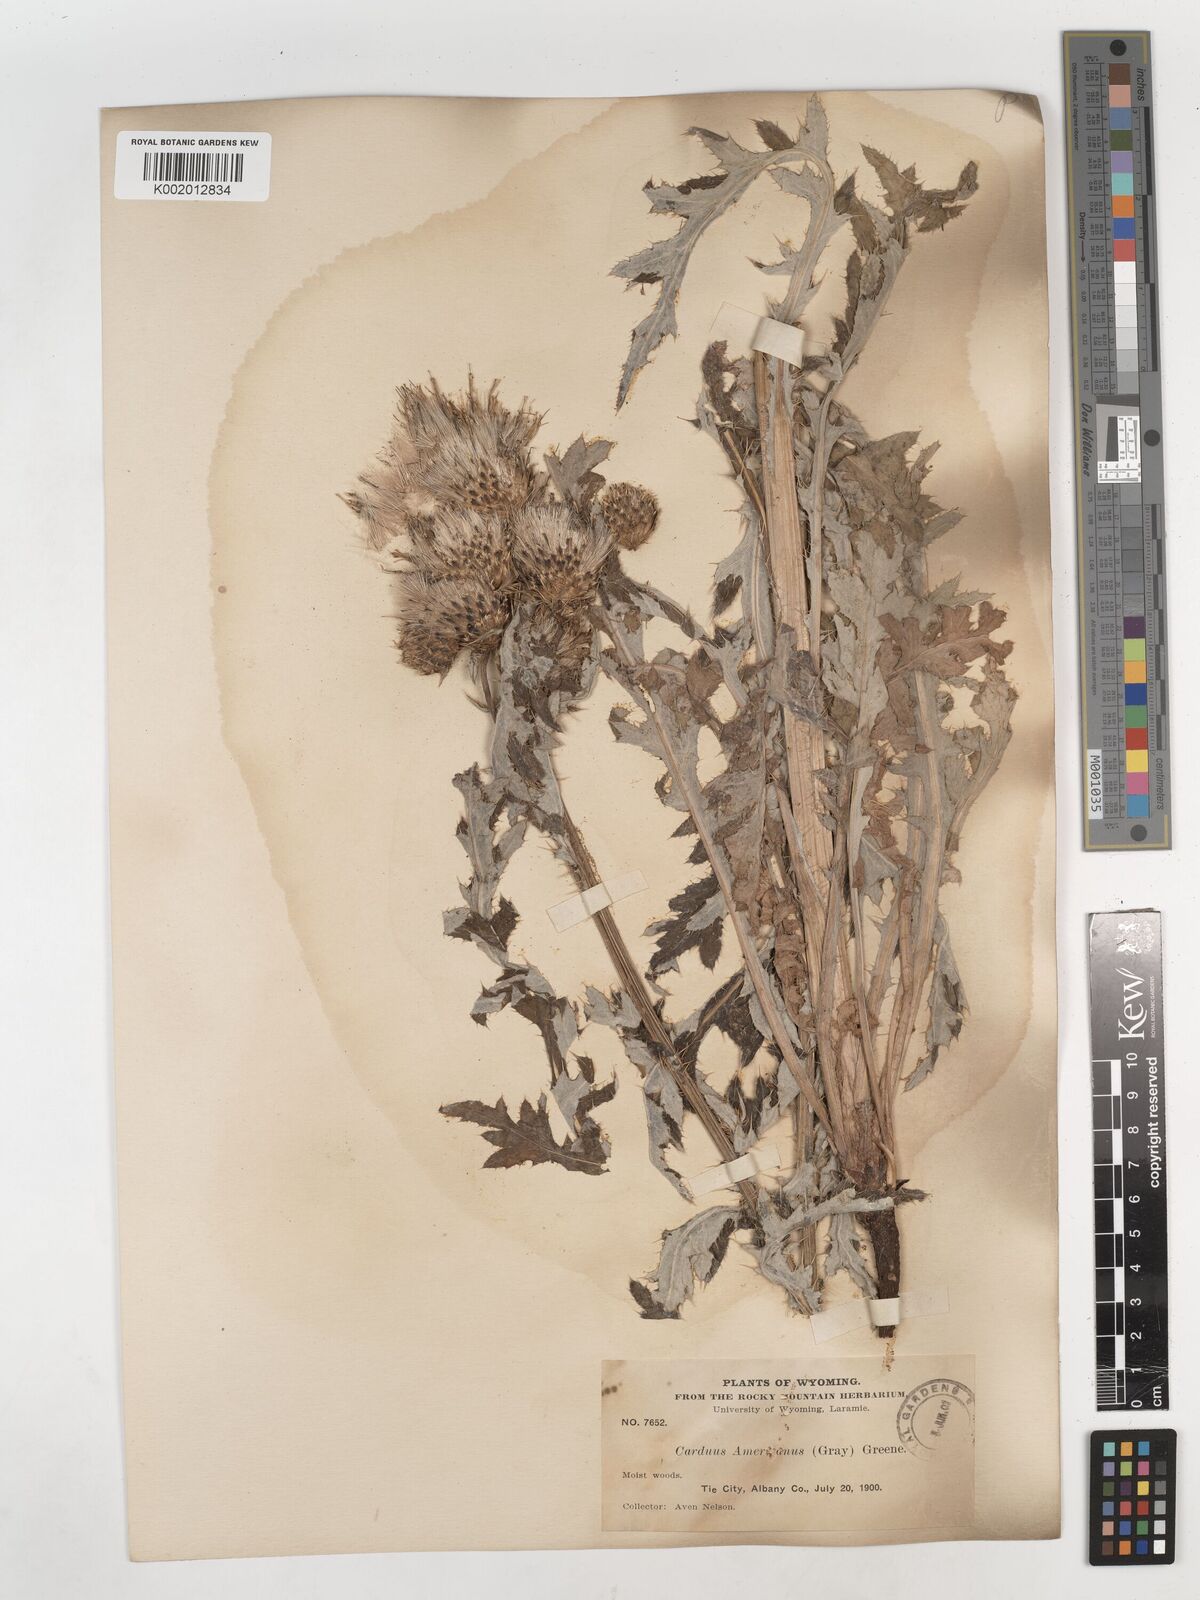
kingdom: Plantae
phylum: Tracheophyta
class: Magnoliopsida
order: Asterales
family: Asteraceae
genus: Cirsium
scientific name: Cirsium tioganum
